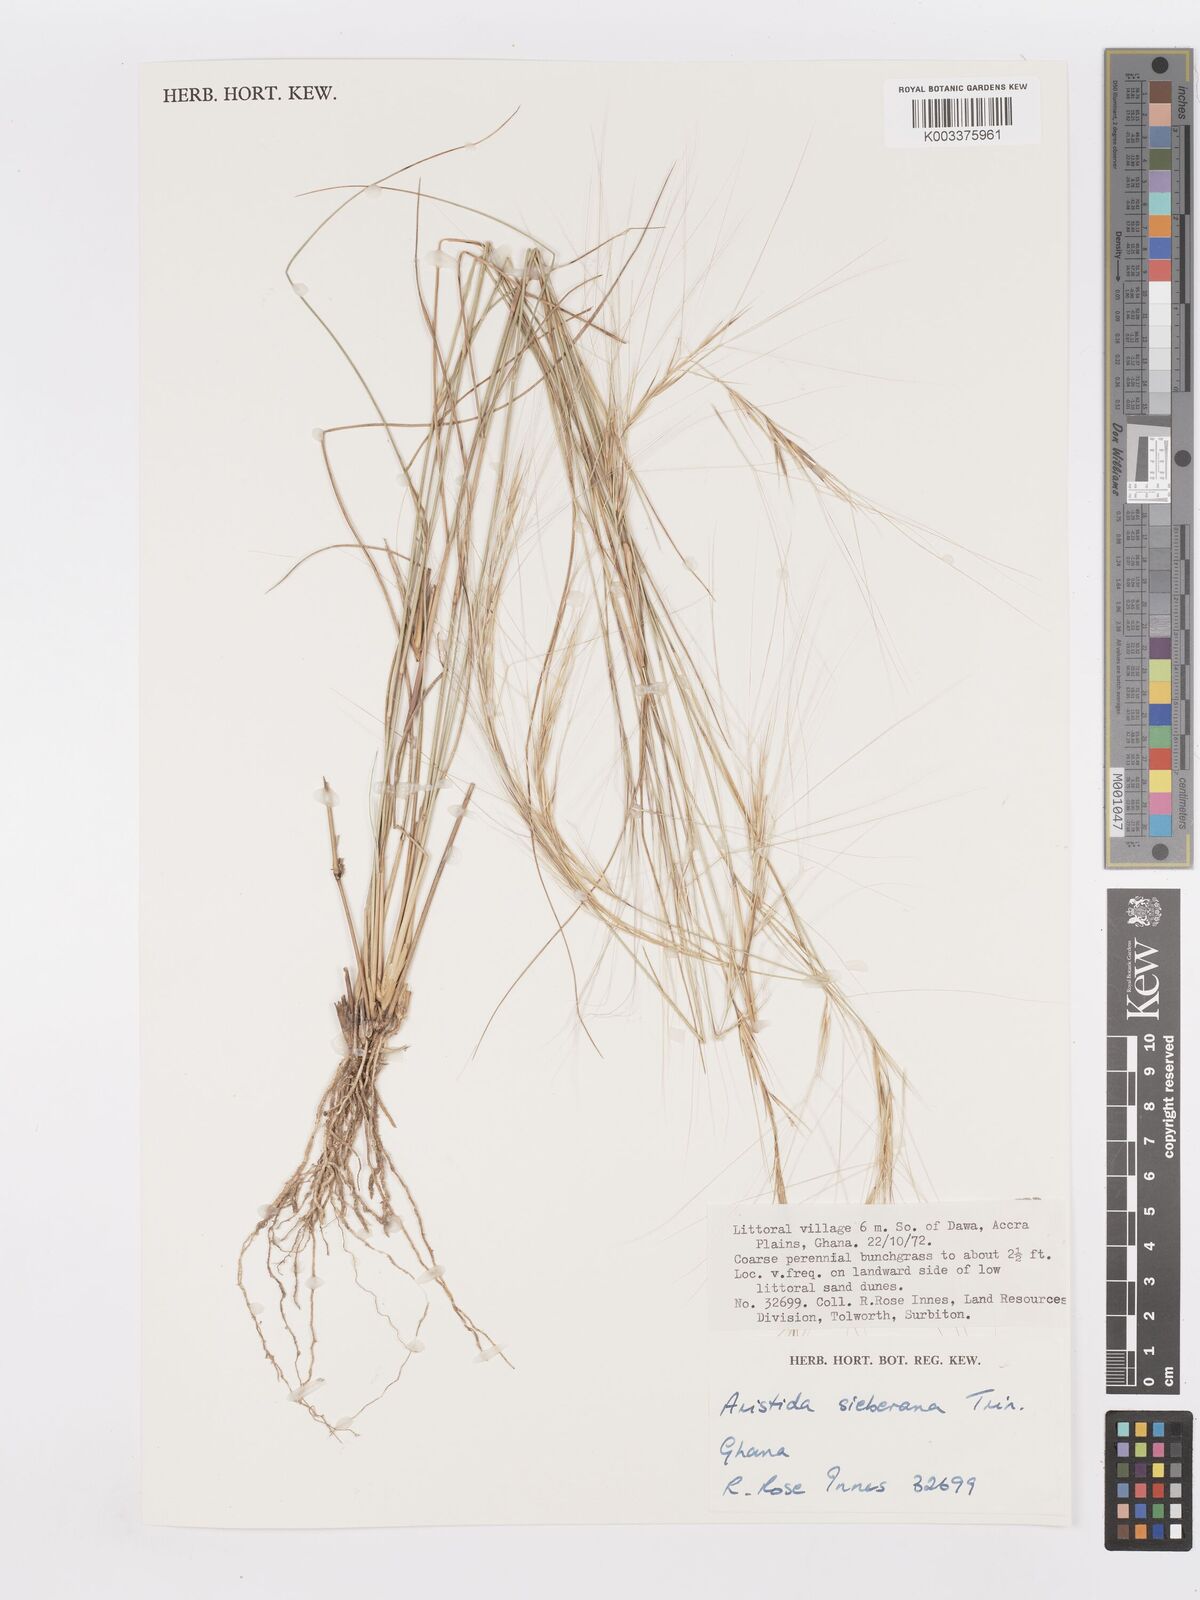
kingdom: Plantae
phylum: Tracheophyta
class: Liliopsida
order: Poales
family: Poaceae
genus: Aristida
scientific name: Aristida sieberiana
